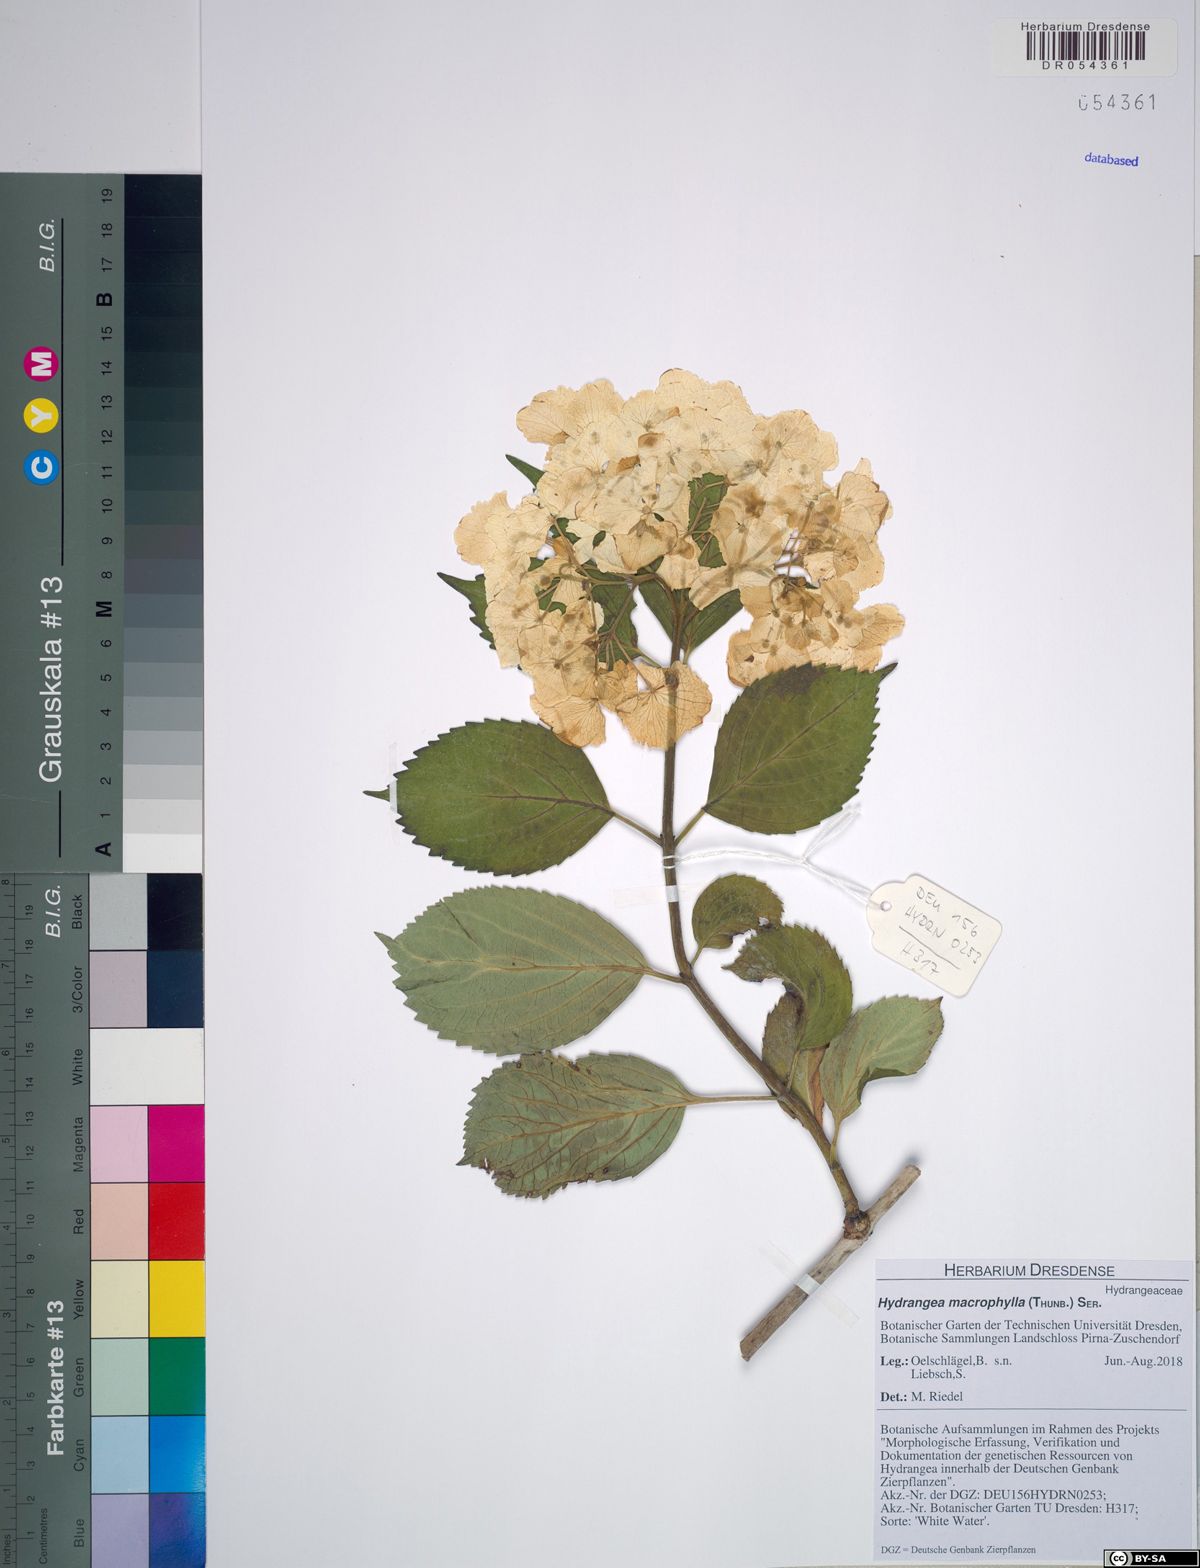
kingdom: Plantae
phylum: Tracheophyta
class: Magnoliopsida
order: Cornales
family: Hydrangeaceae
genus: Hydrangea
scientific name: Hydrangea macrophylla
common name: Hydrangea
